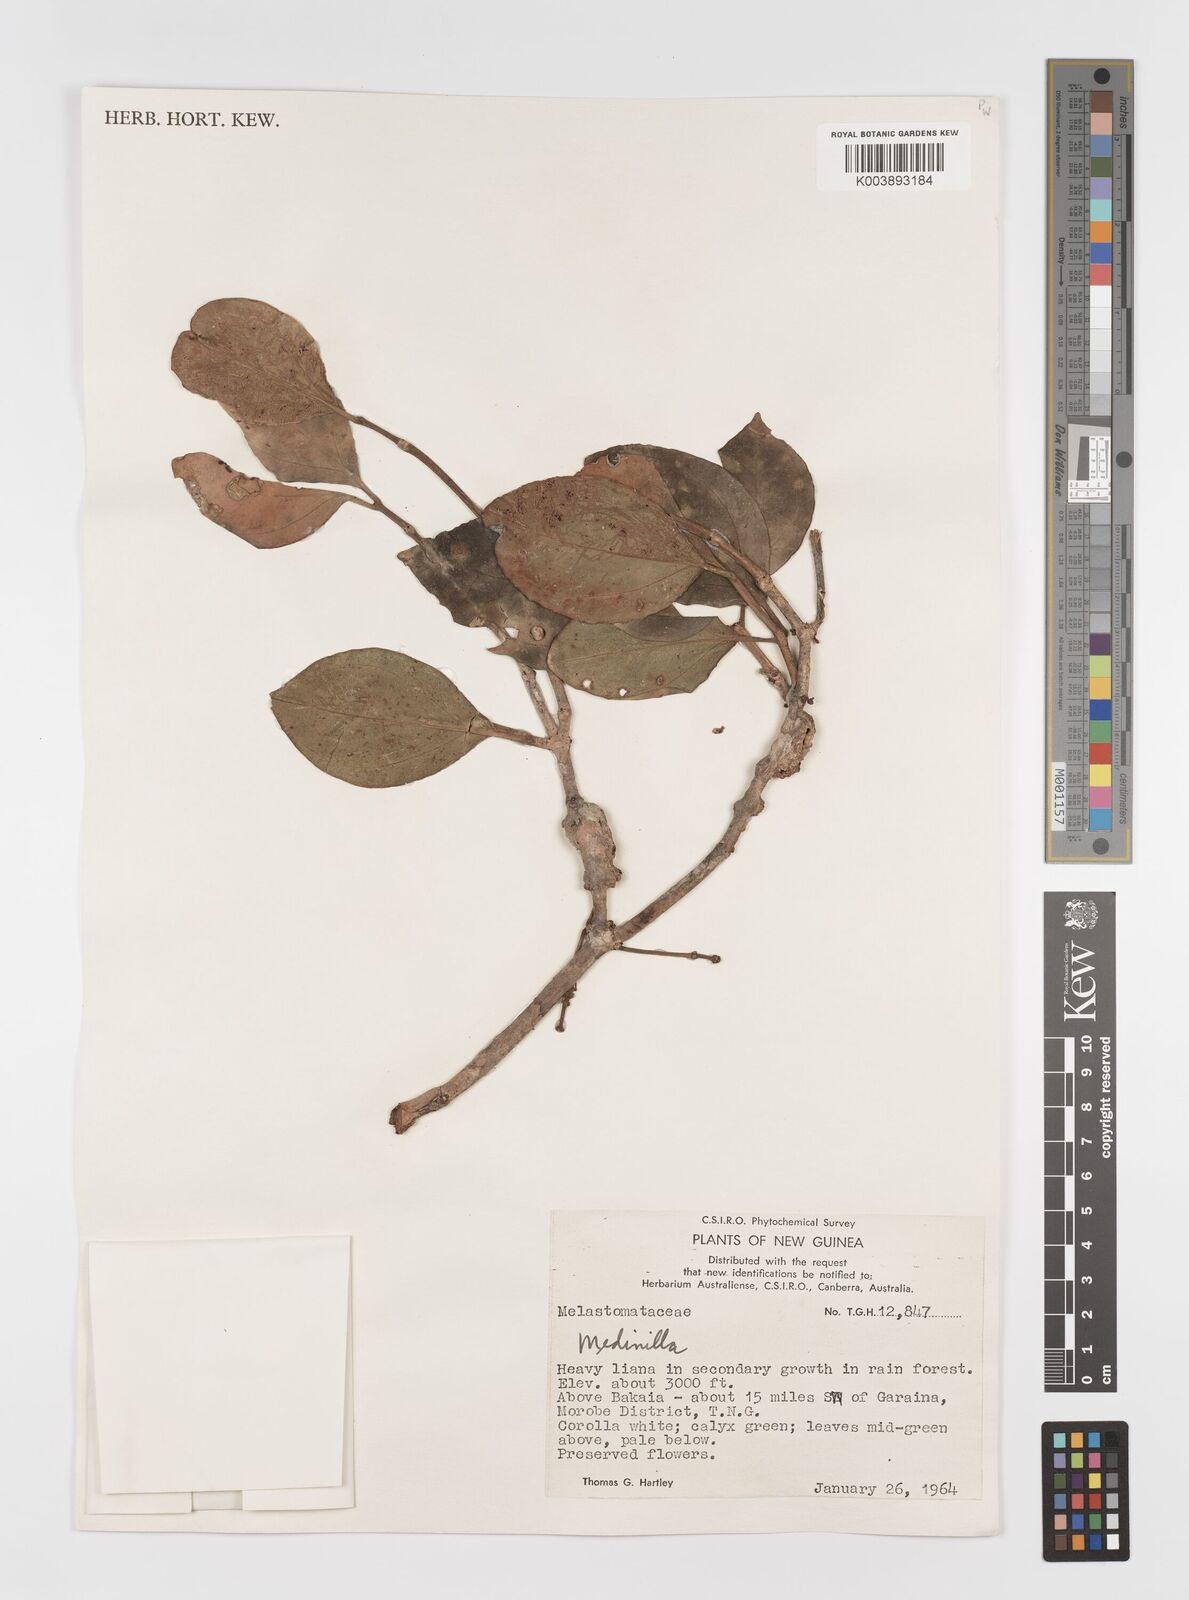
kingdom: Plantae
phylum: Tracheophyta
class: Magnoliopsida
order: Myrtales
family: Melastomataceae
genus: Medinilla
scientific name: Medinilla
